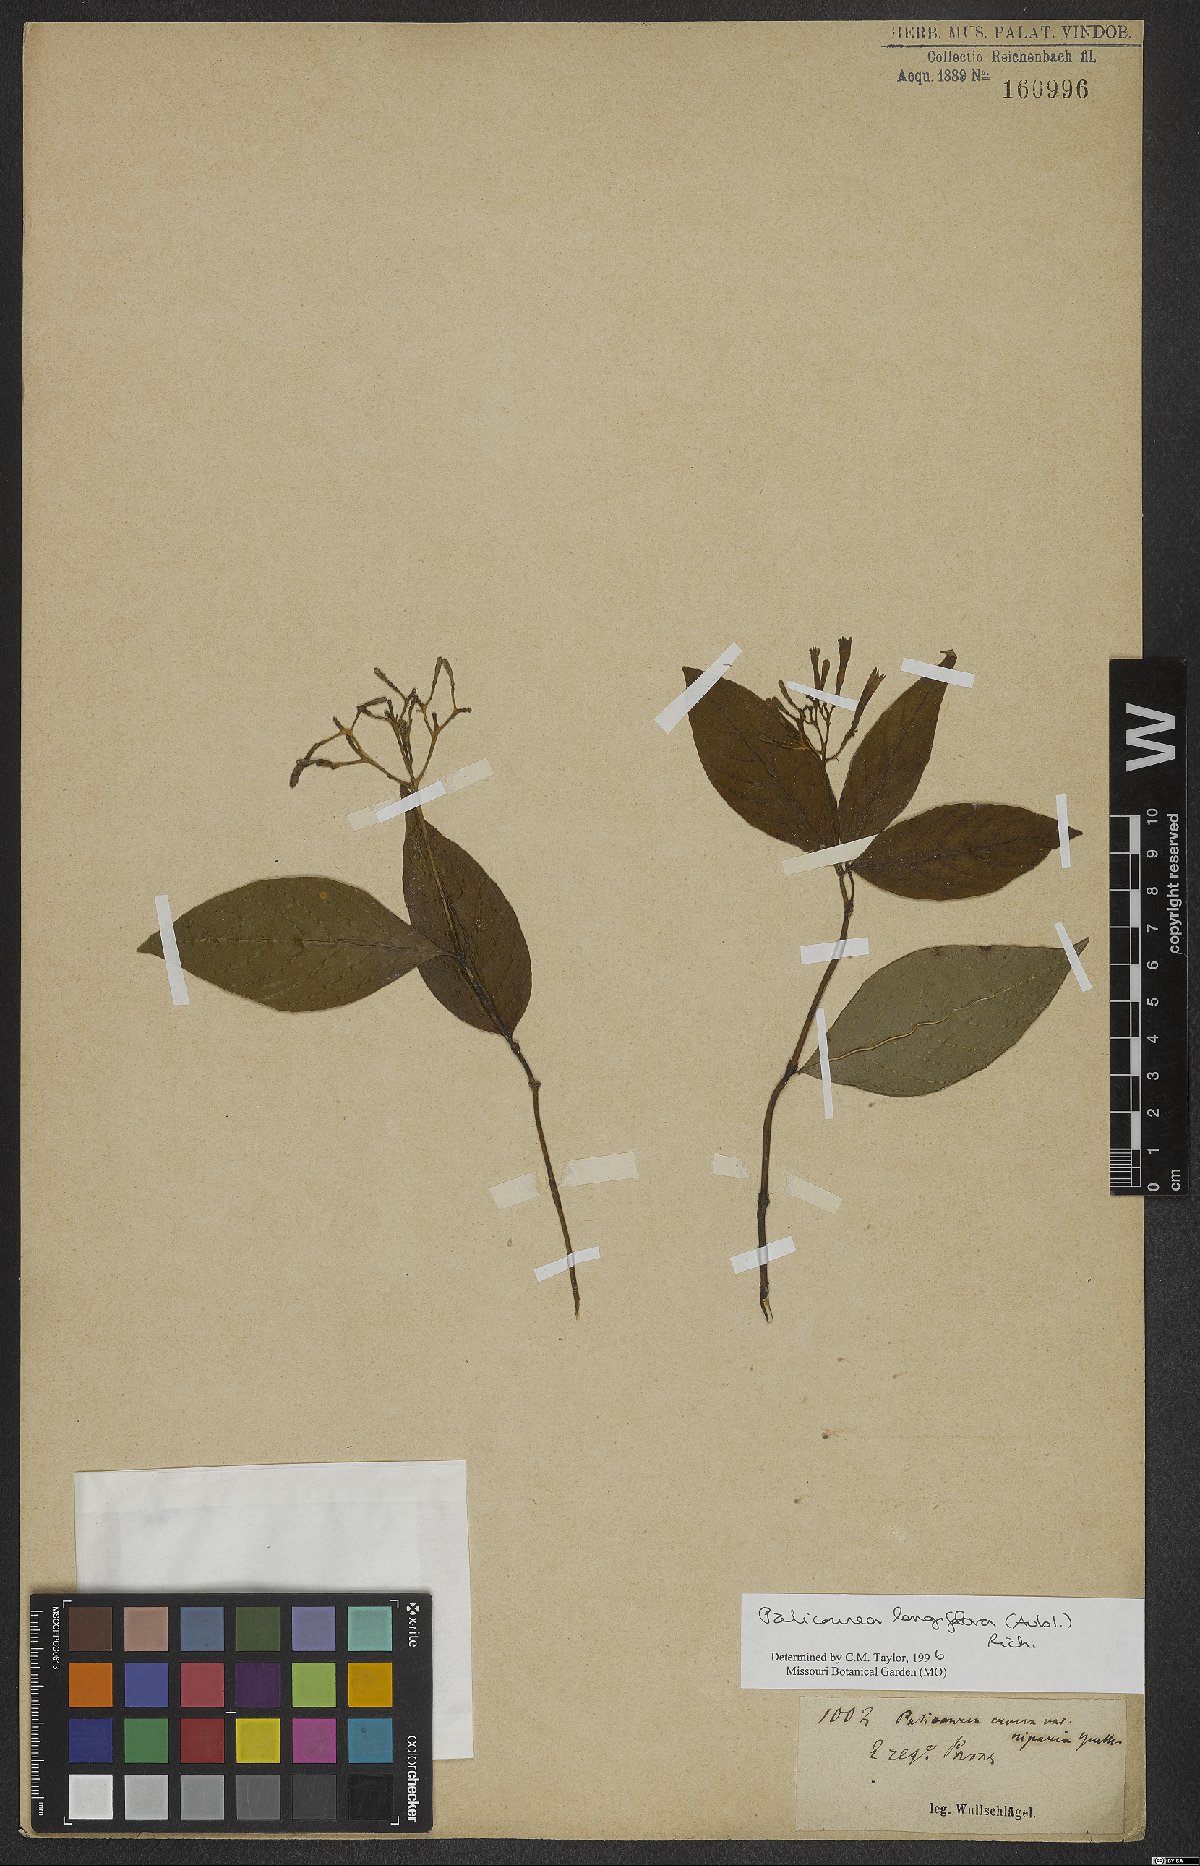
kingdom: Plantae
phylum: Tracheophyta
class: Magnoliopsida
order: Gentianales
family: Rubiaceae
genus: Palicourea
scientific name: Palicourea longiflora
